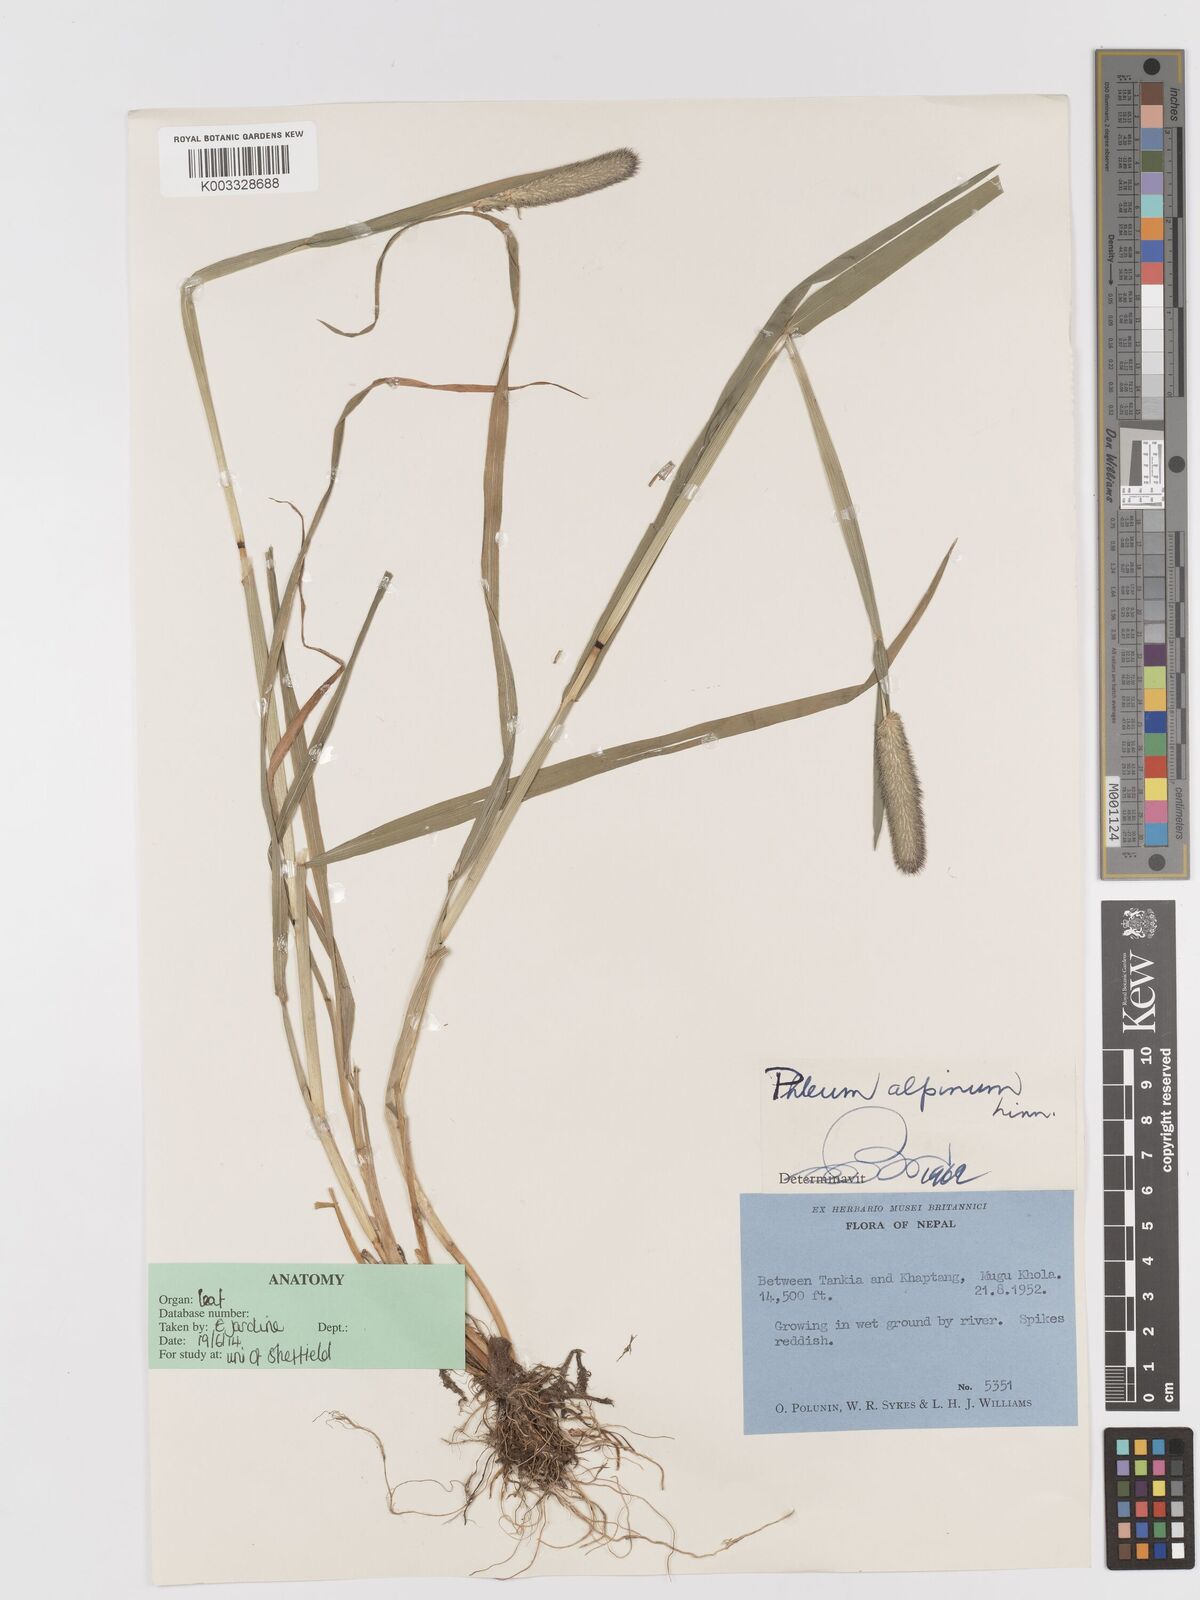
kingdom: Plantae
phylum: Tracheophyta
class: Liliopsida
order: Poales
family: Poaceae
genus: Phleum
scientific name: Phleum alpinum
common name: Alpine cat's-tail
